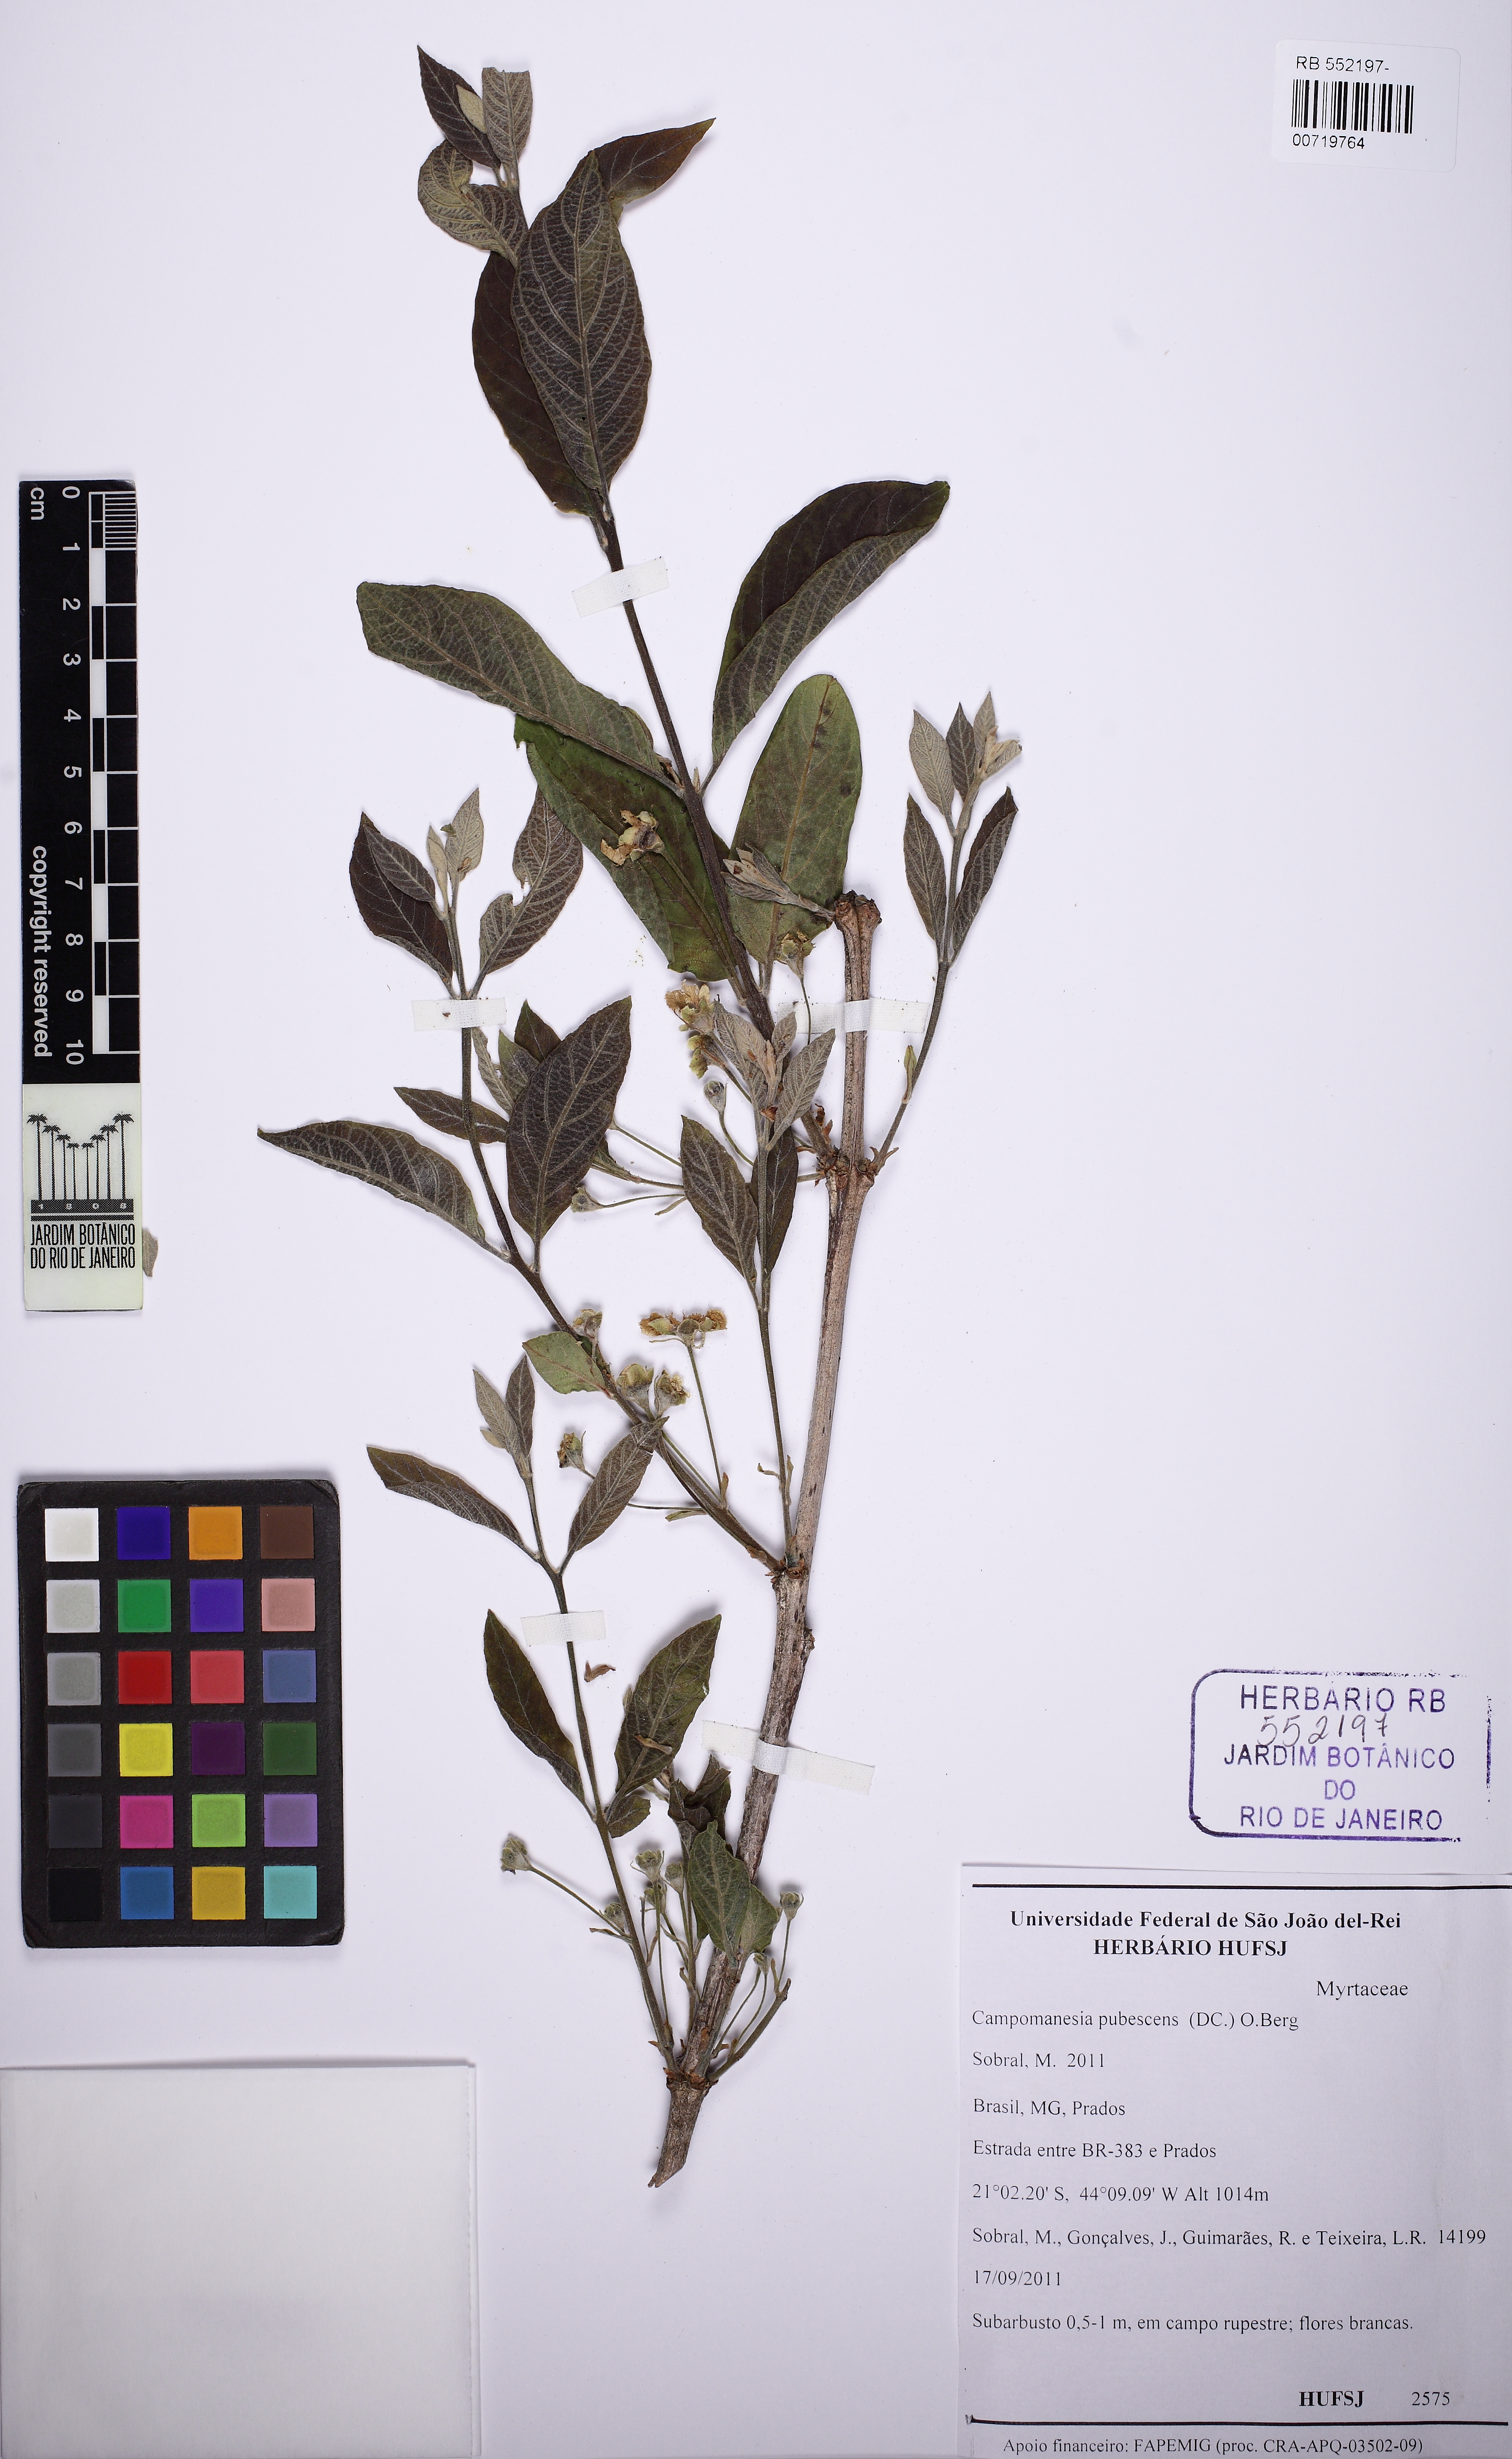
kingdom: Plantae
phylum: Tracheophyta
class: Magnoliopsida
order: Myrtales
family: Myrtaceae
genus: Campomanesia
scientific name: Campomanesia pubescens
